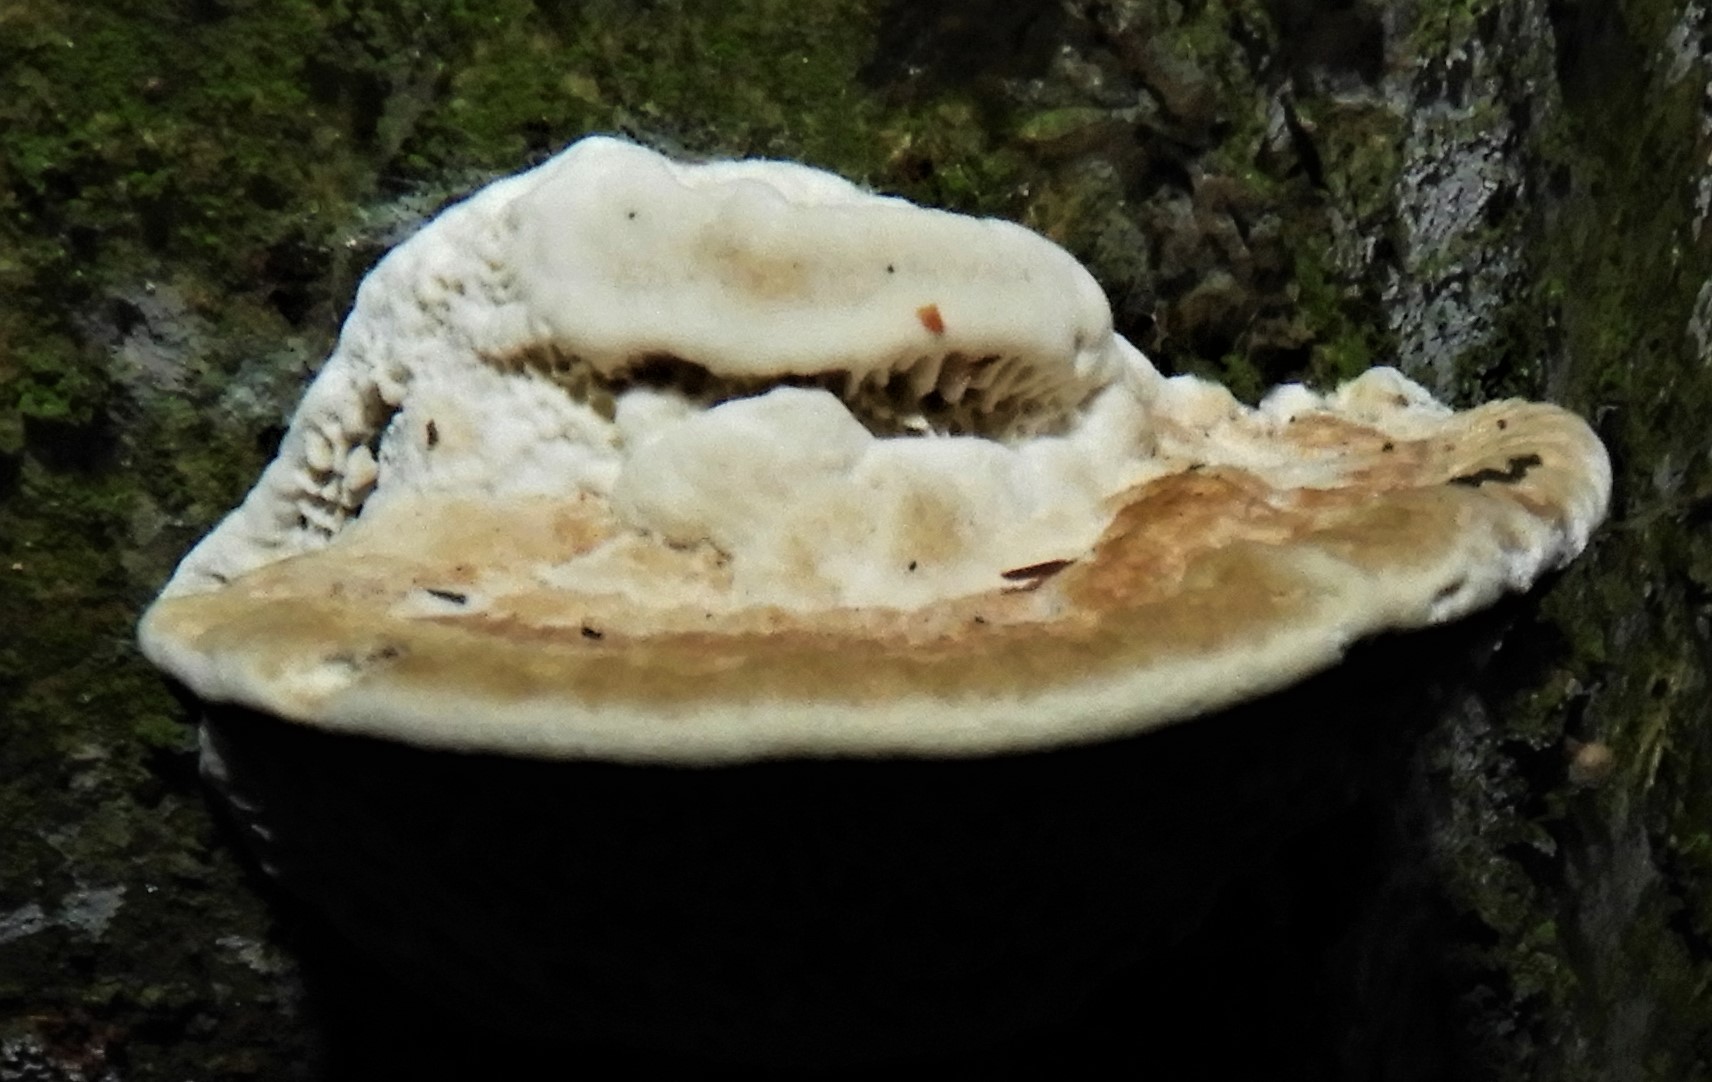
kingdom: Fungi
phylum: Basidiomycota
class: Agaricomycetes
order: Polyporales
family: Fomitopsidaceae
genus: Daedalea
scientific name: Daedalea quercina
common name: ege-labyrintsvamp
